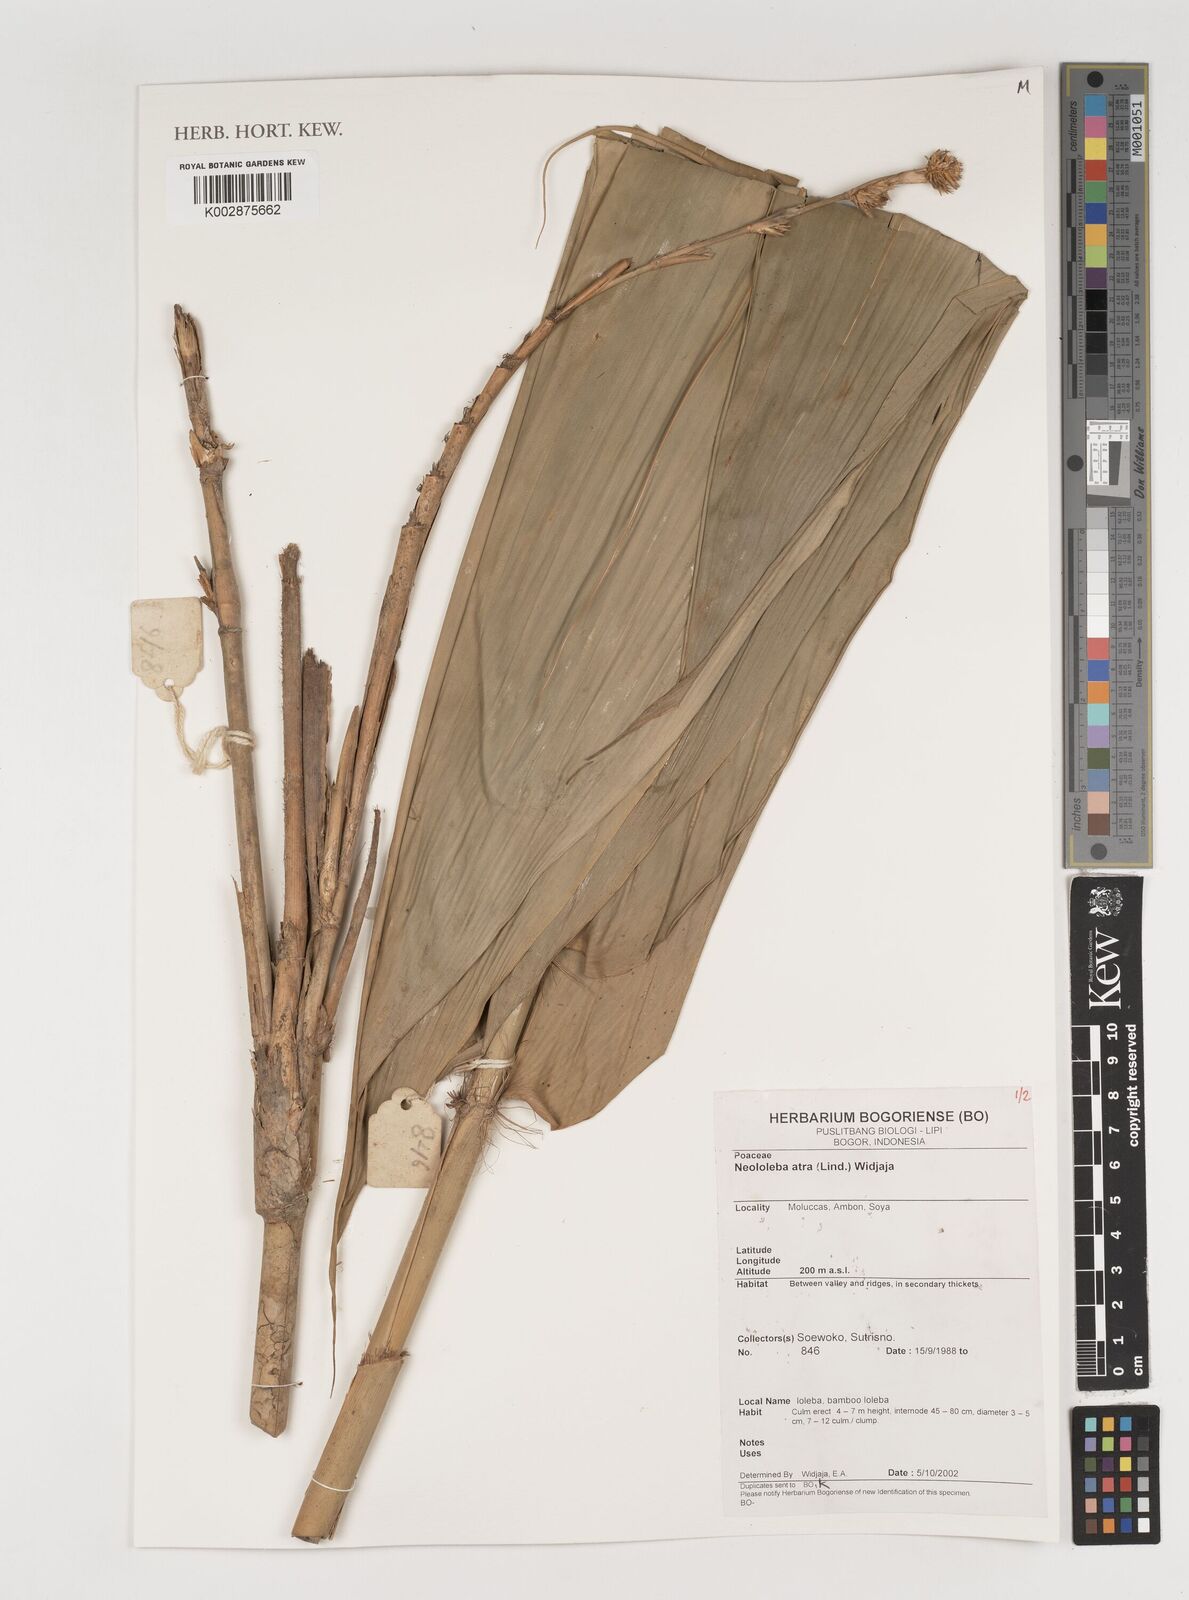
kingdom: Plantae
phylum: Tracheophyta
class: Liliopsida
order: Poales
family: Poaceae
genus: Neololeba
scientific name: Neololeba atra
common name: Cape bamboo
